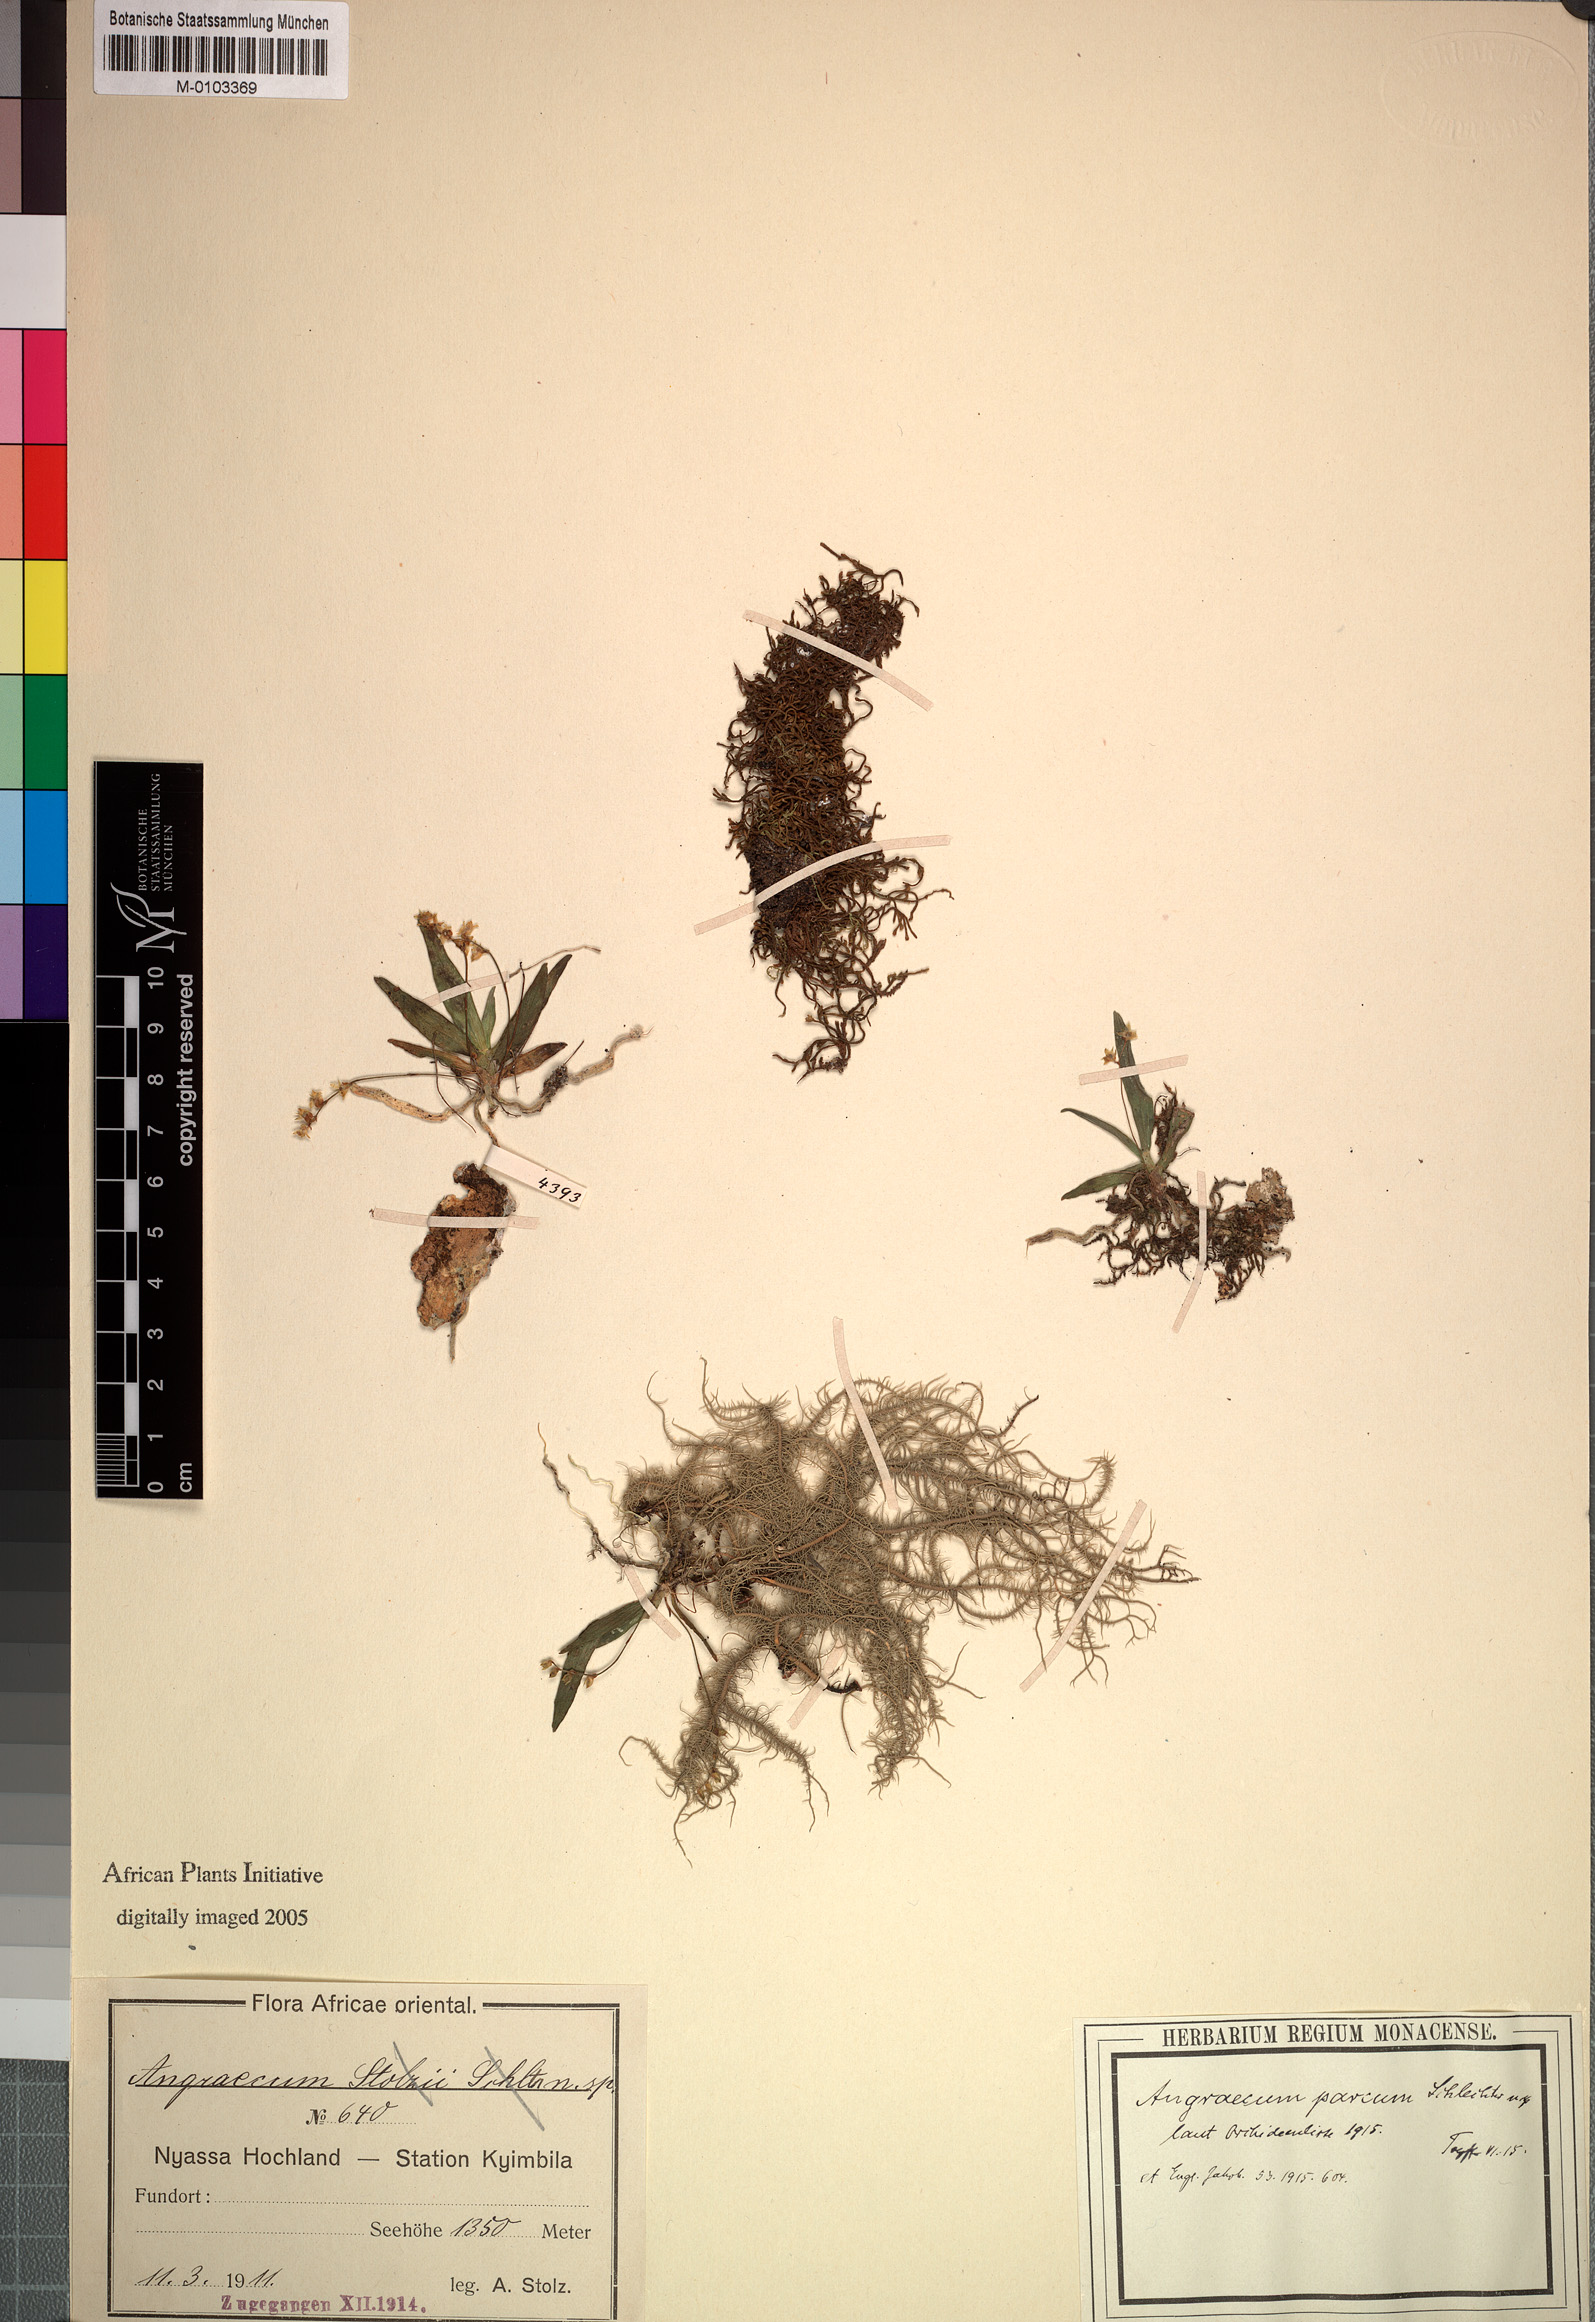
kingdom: Plantae
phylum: Tracheophyta
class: Liliopsida
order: Asparagales
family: Orchidaceae
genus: Angraecum
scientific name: Angraecum sacciferum
